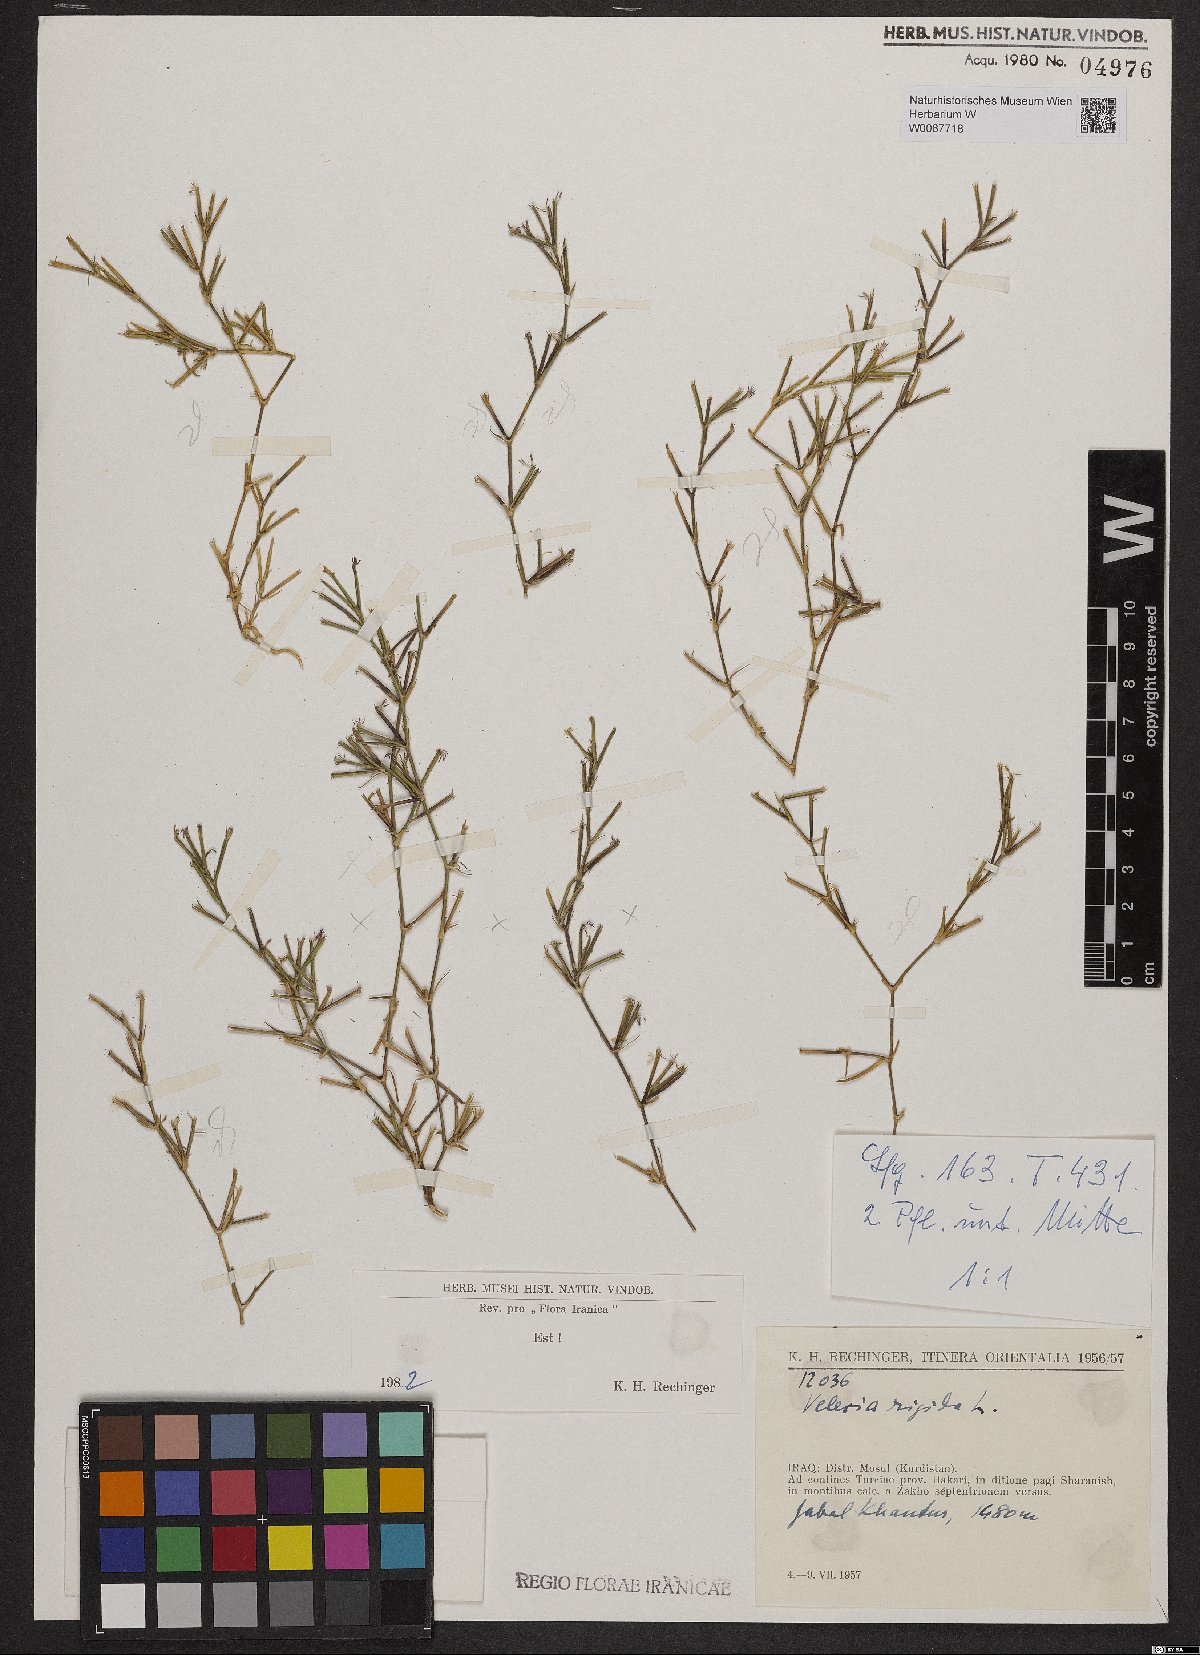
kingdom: Plantae
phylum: Tracheophyta
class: Magnoliopsida
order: Caryophyllales
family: Caryophyllaceae
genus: Dianthus
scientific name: Dianthus nudiflorus
